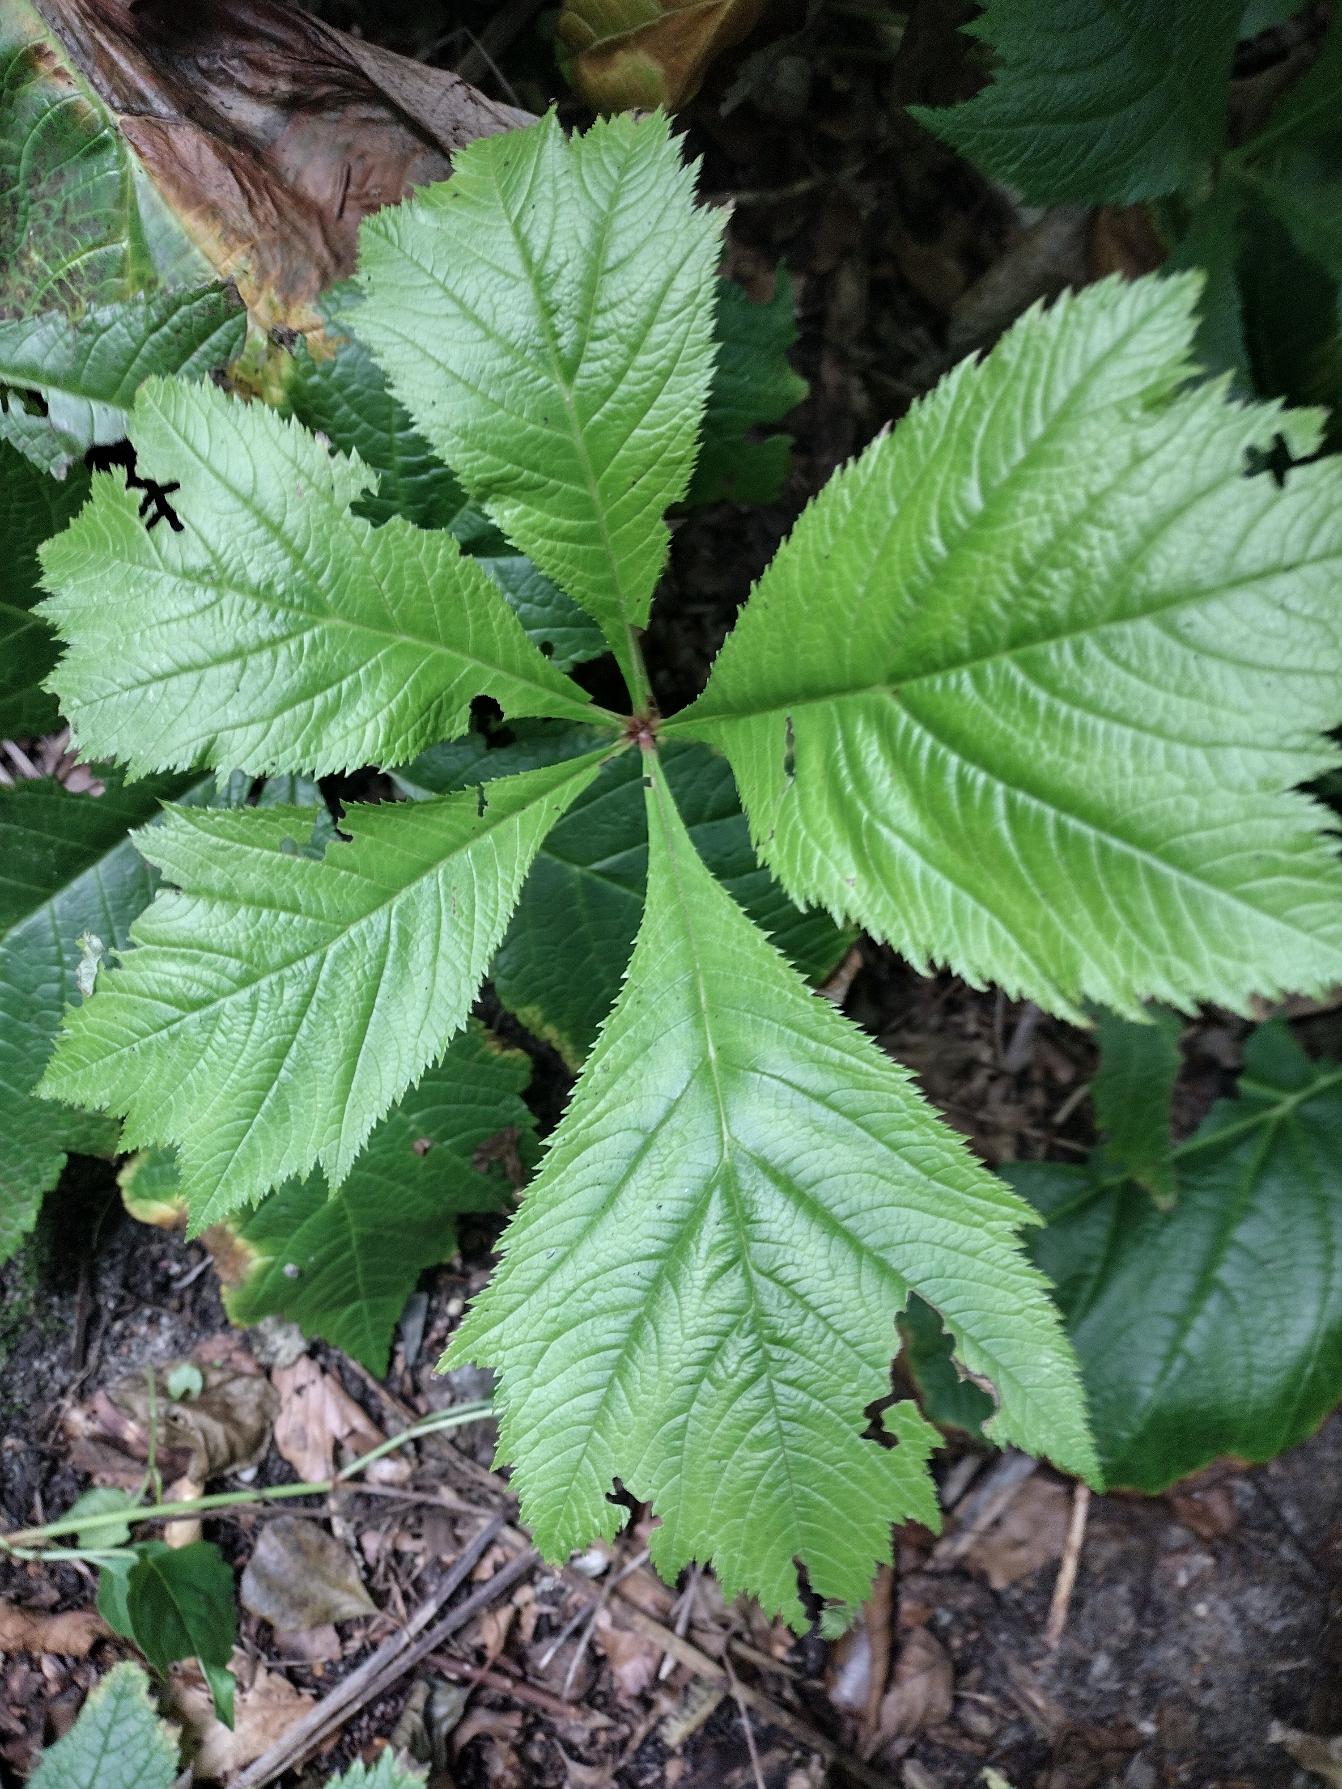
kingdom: Plantae
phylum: Tracheophyta
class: Magnoliopsida
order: Saxifragales
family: Saxifragaceae
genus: Rodgersia
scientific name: Rodgersia podophylla
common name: Stilket bronzeblad
